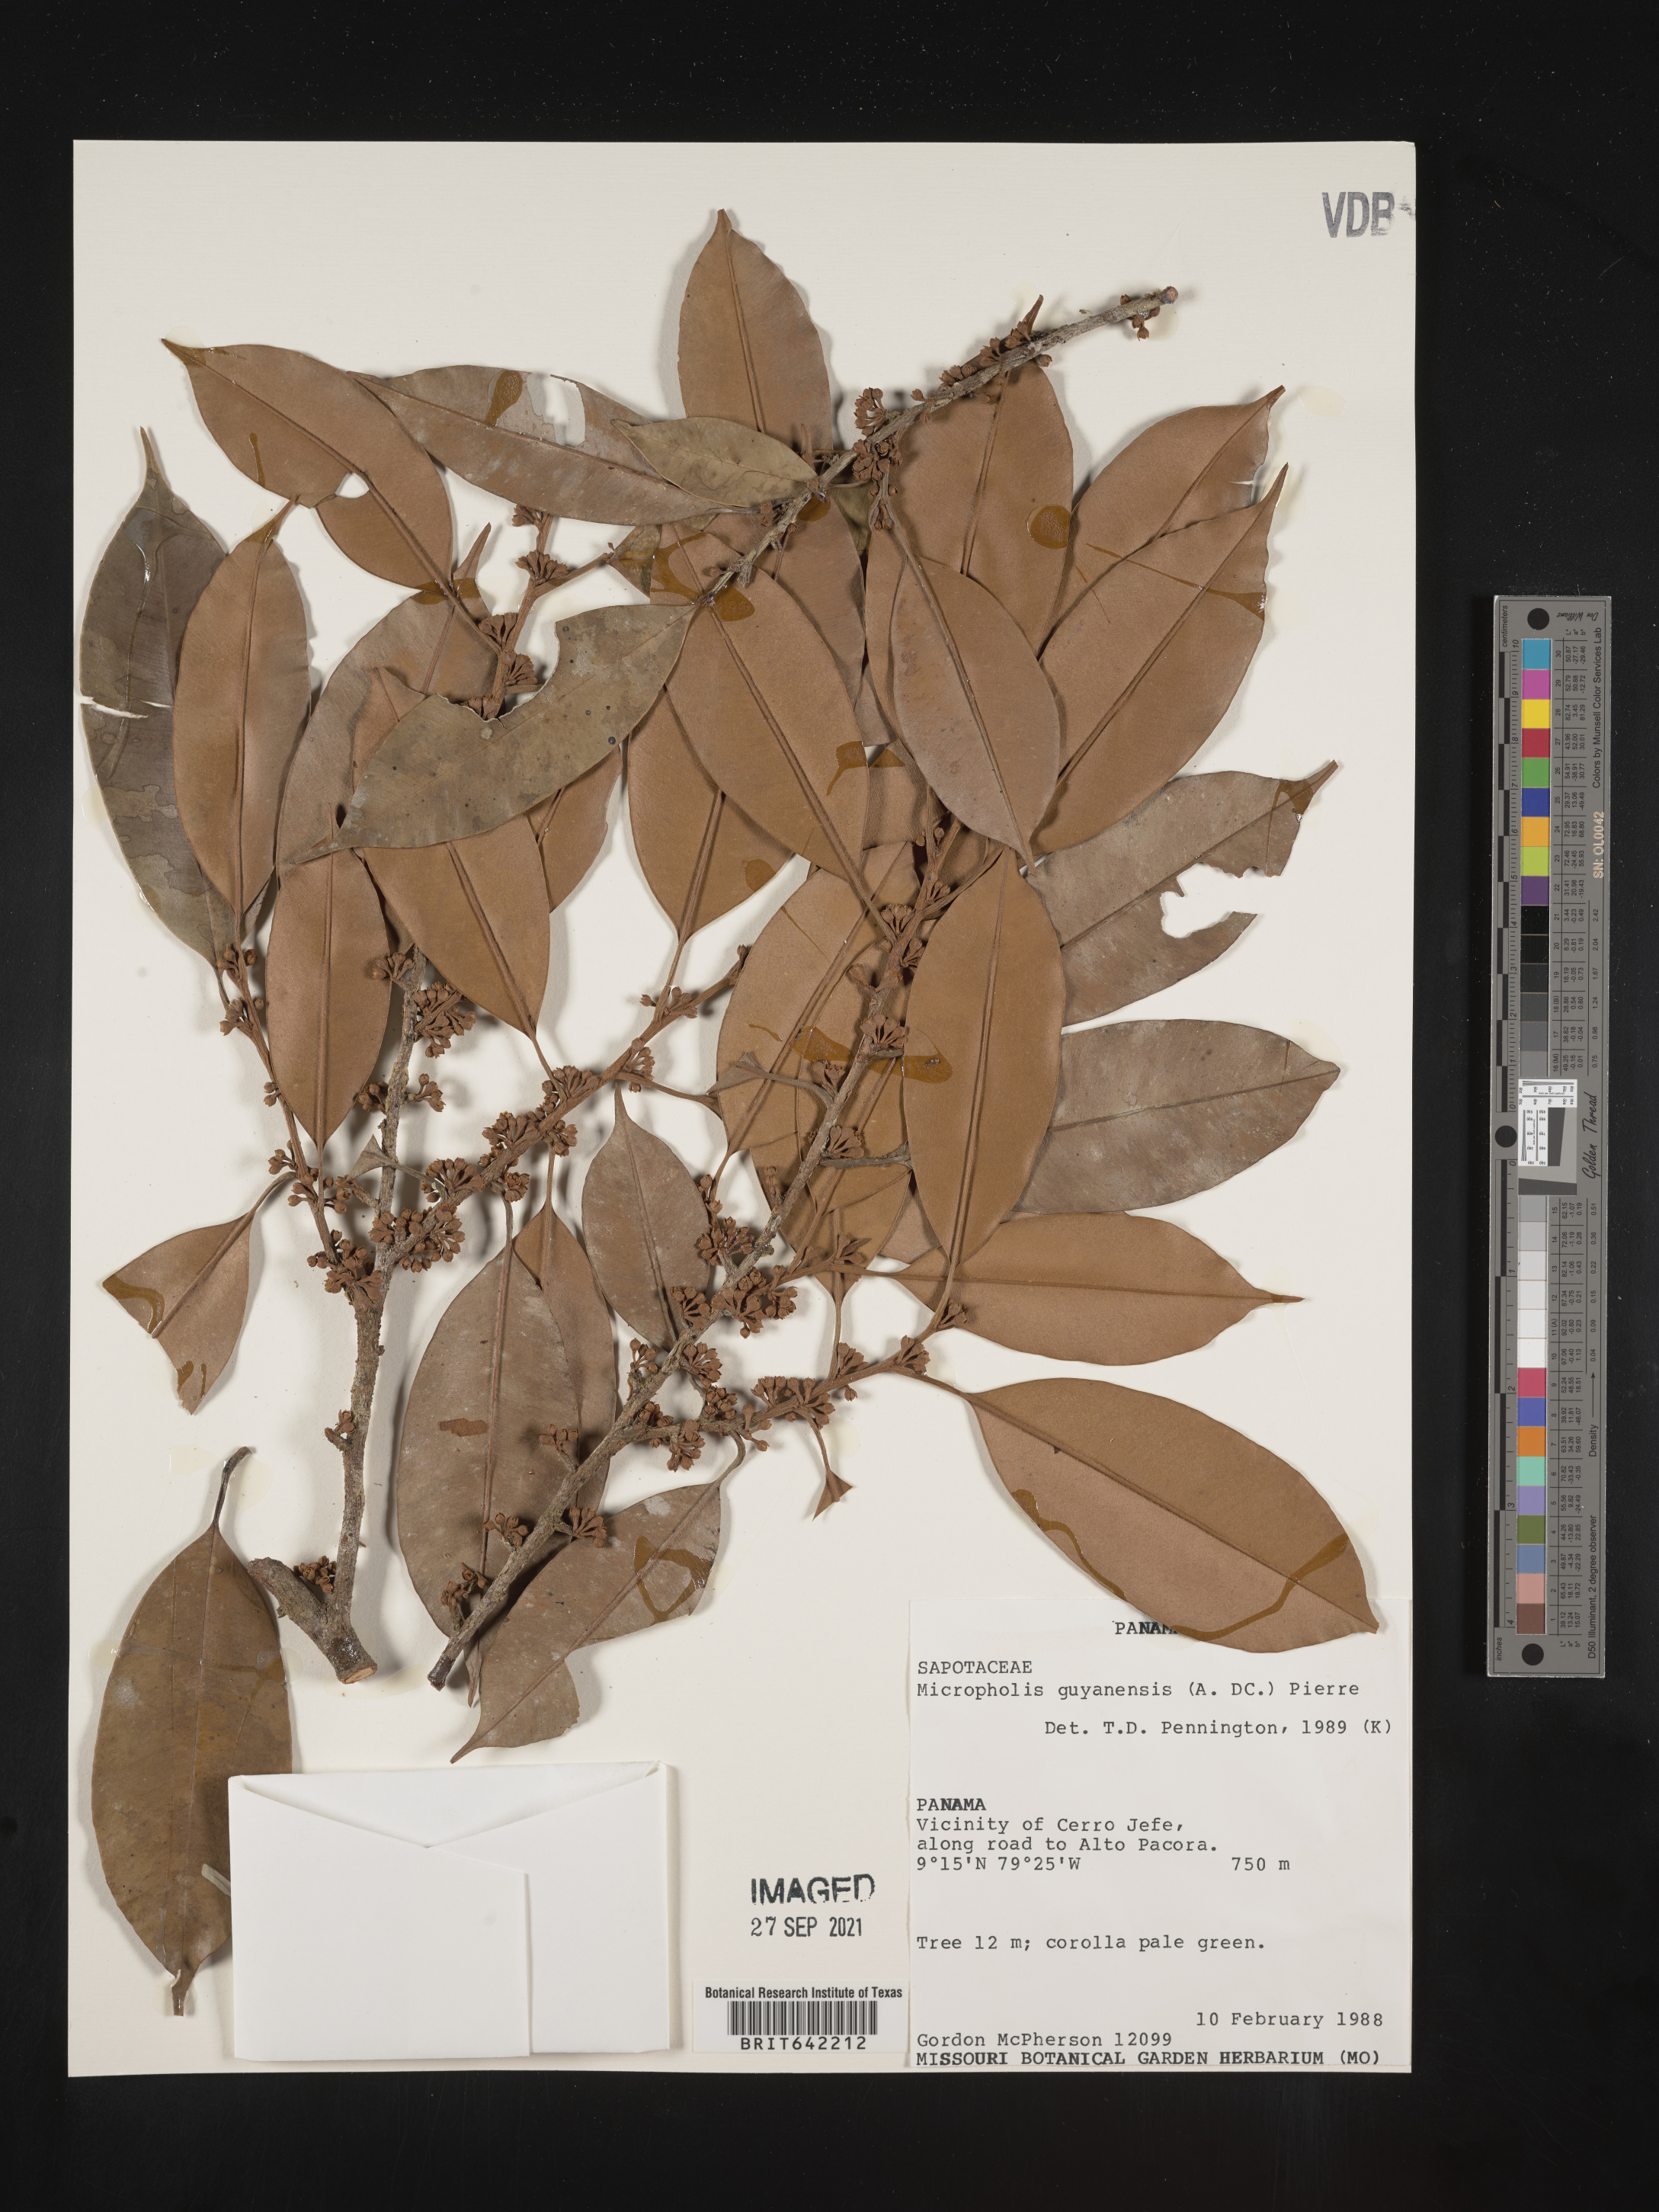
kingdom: Plantae
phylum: Tracheophyta
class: Magnoliopsida
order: Ericales
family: Sapotaceae
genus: Micropholis
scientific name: Micropholis
